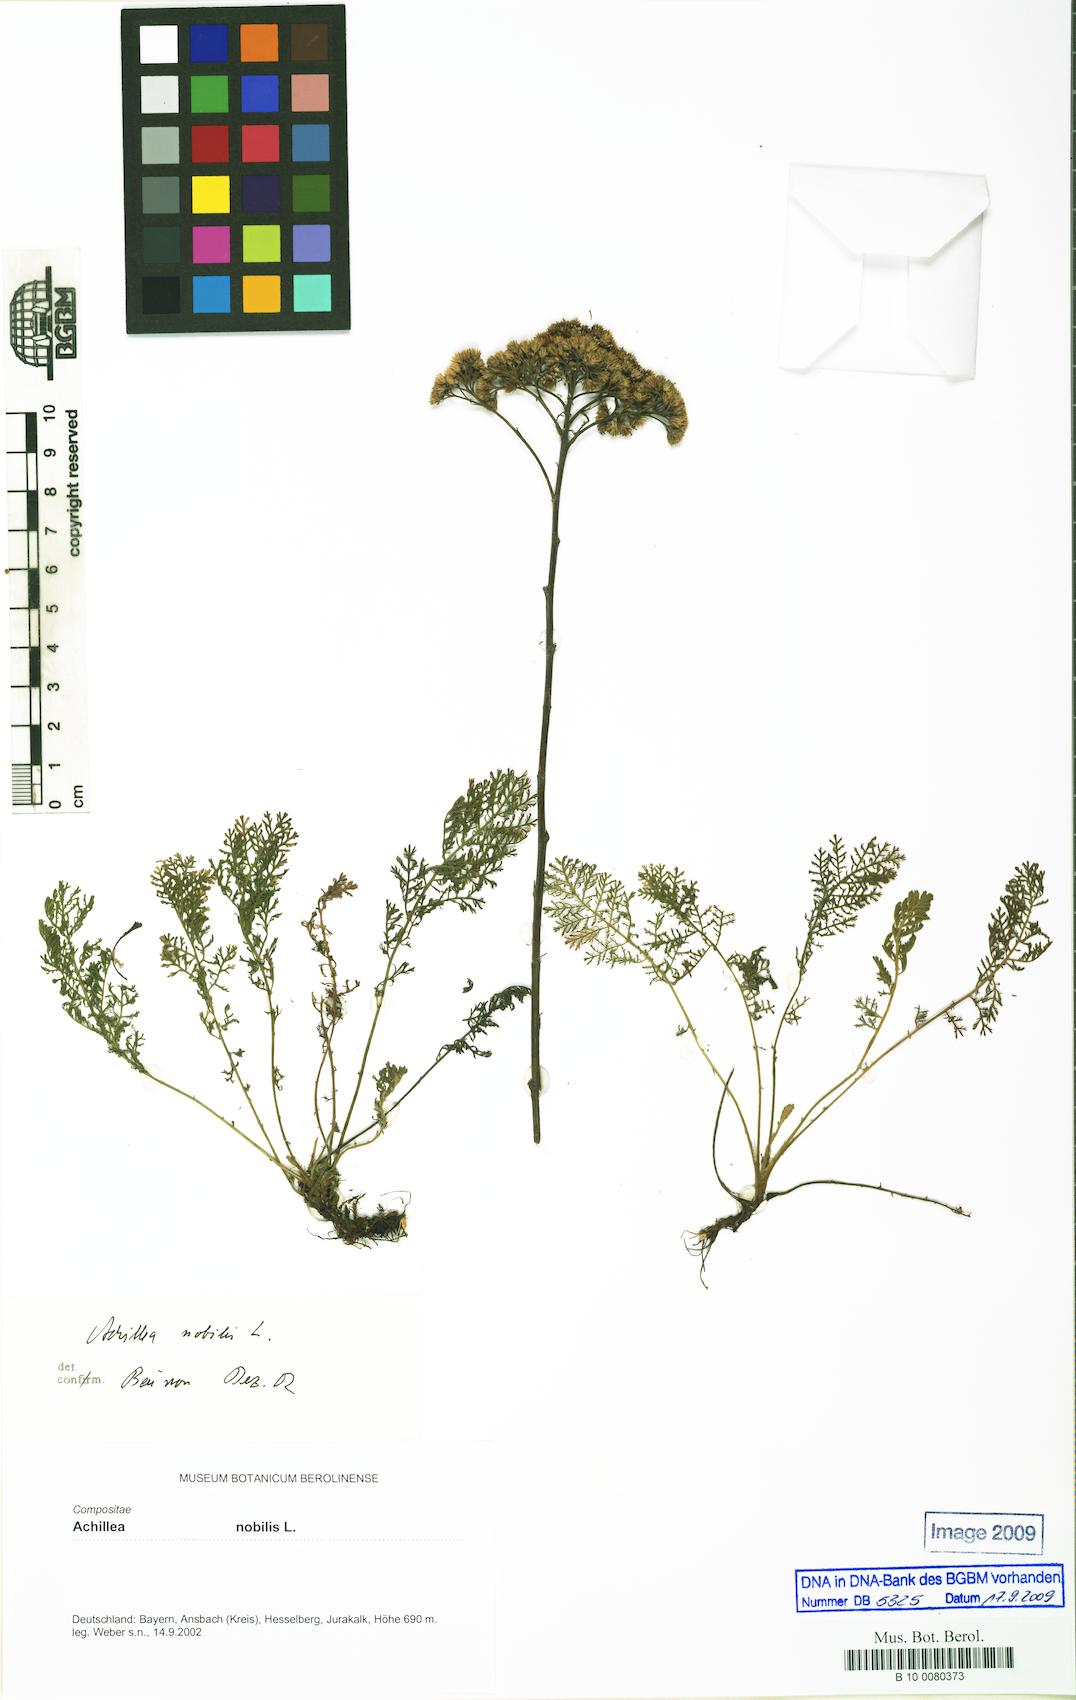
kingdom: Plantae
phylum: Tracheophyta
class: Magnoliopsida
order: Asterales
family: Asteraceae
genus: Achillea
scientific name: Achillea nobilis
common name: Noble yarrow
